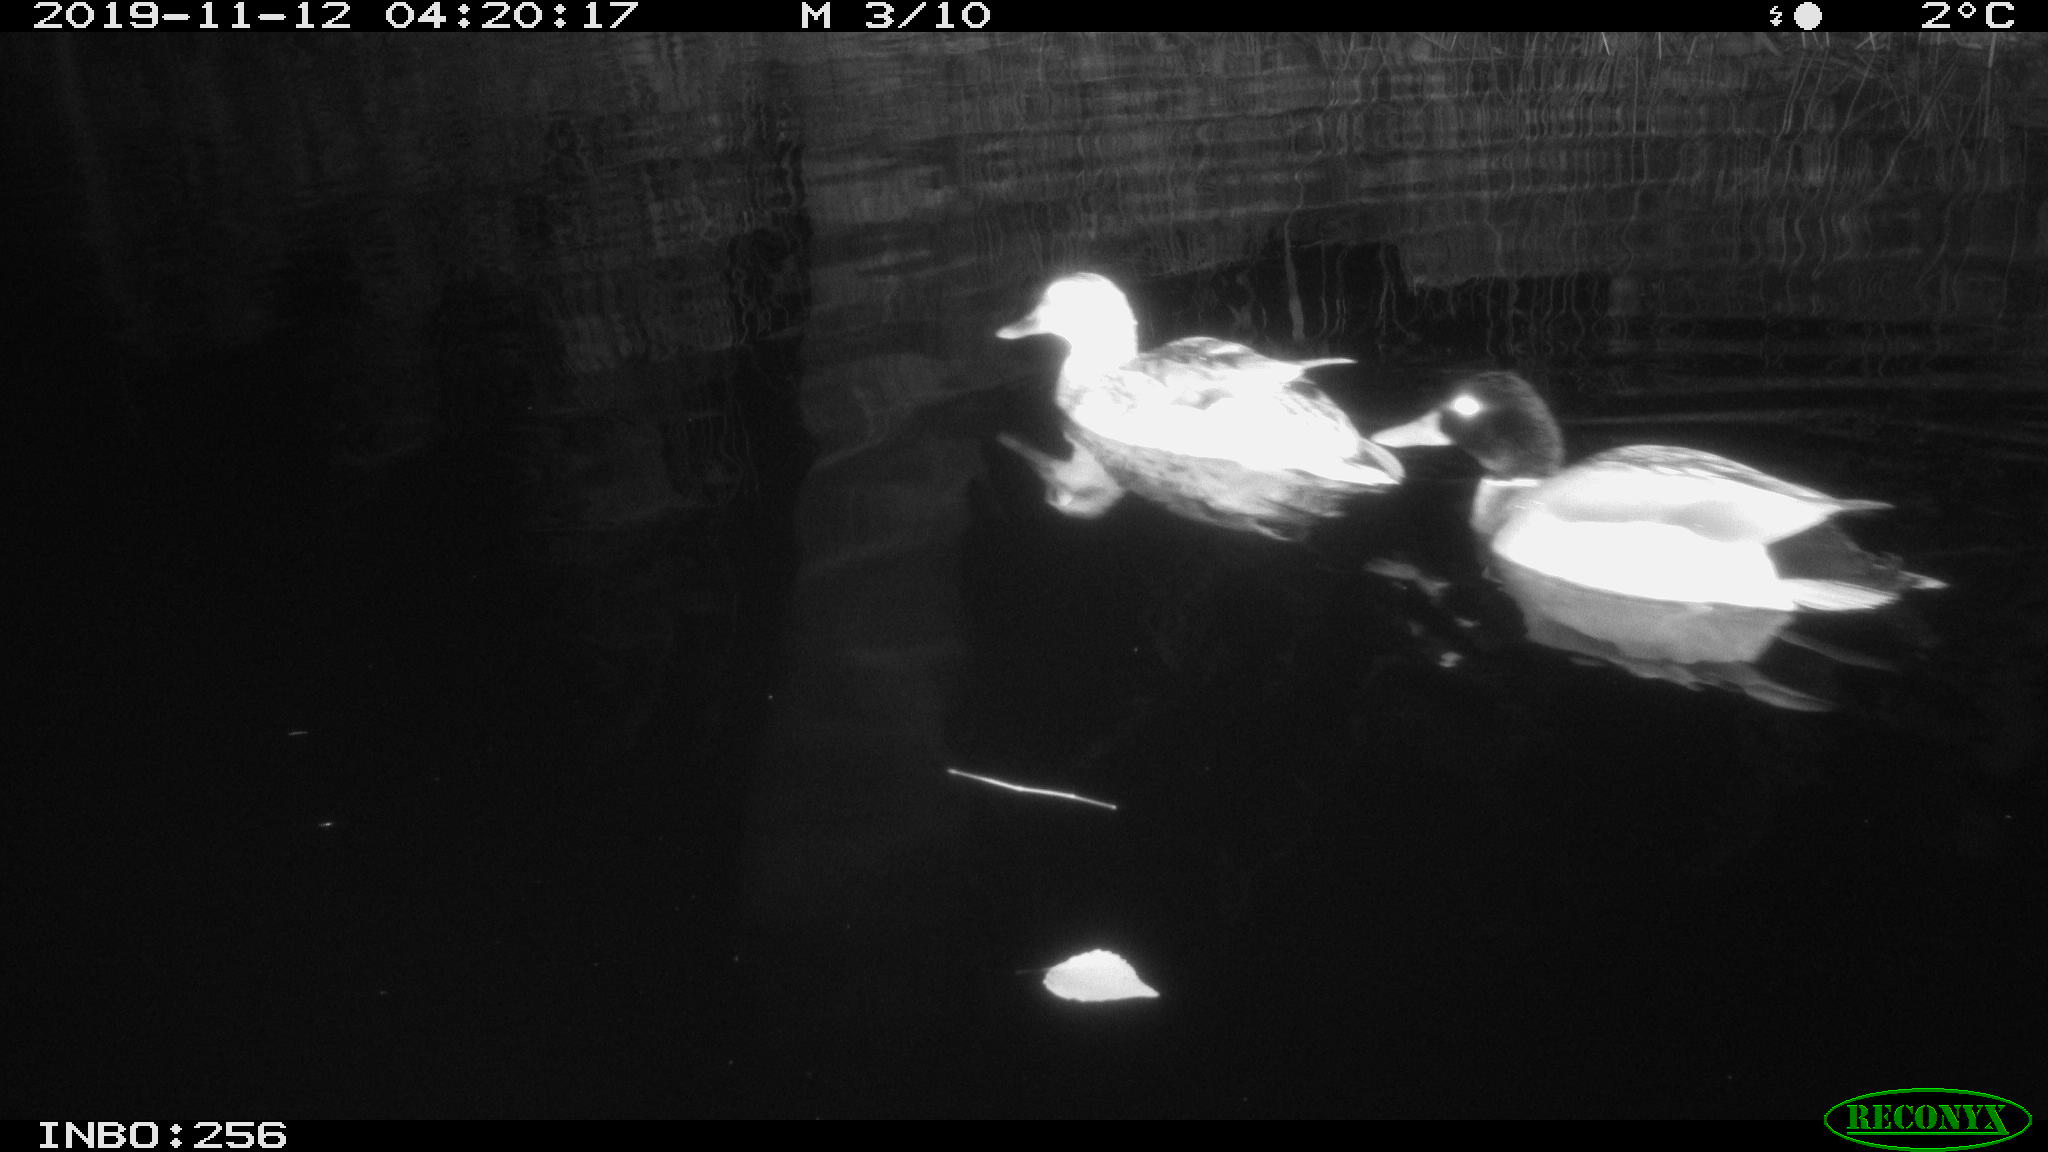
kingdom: Animalia
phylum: Chordata
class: Aves
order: Anseriformes
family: Anatidae
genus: Anas
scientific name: Anas platyrhynchos
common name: Mallard
